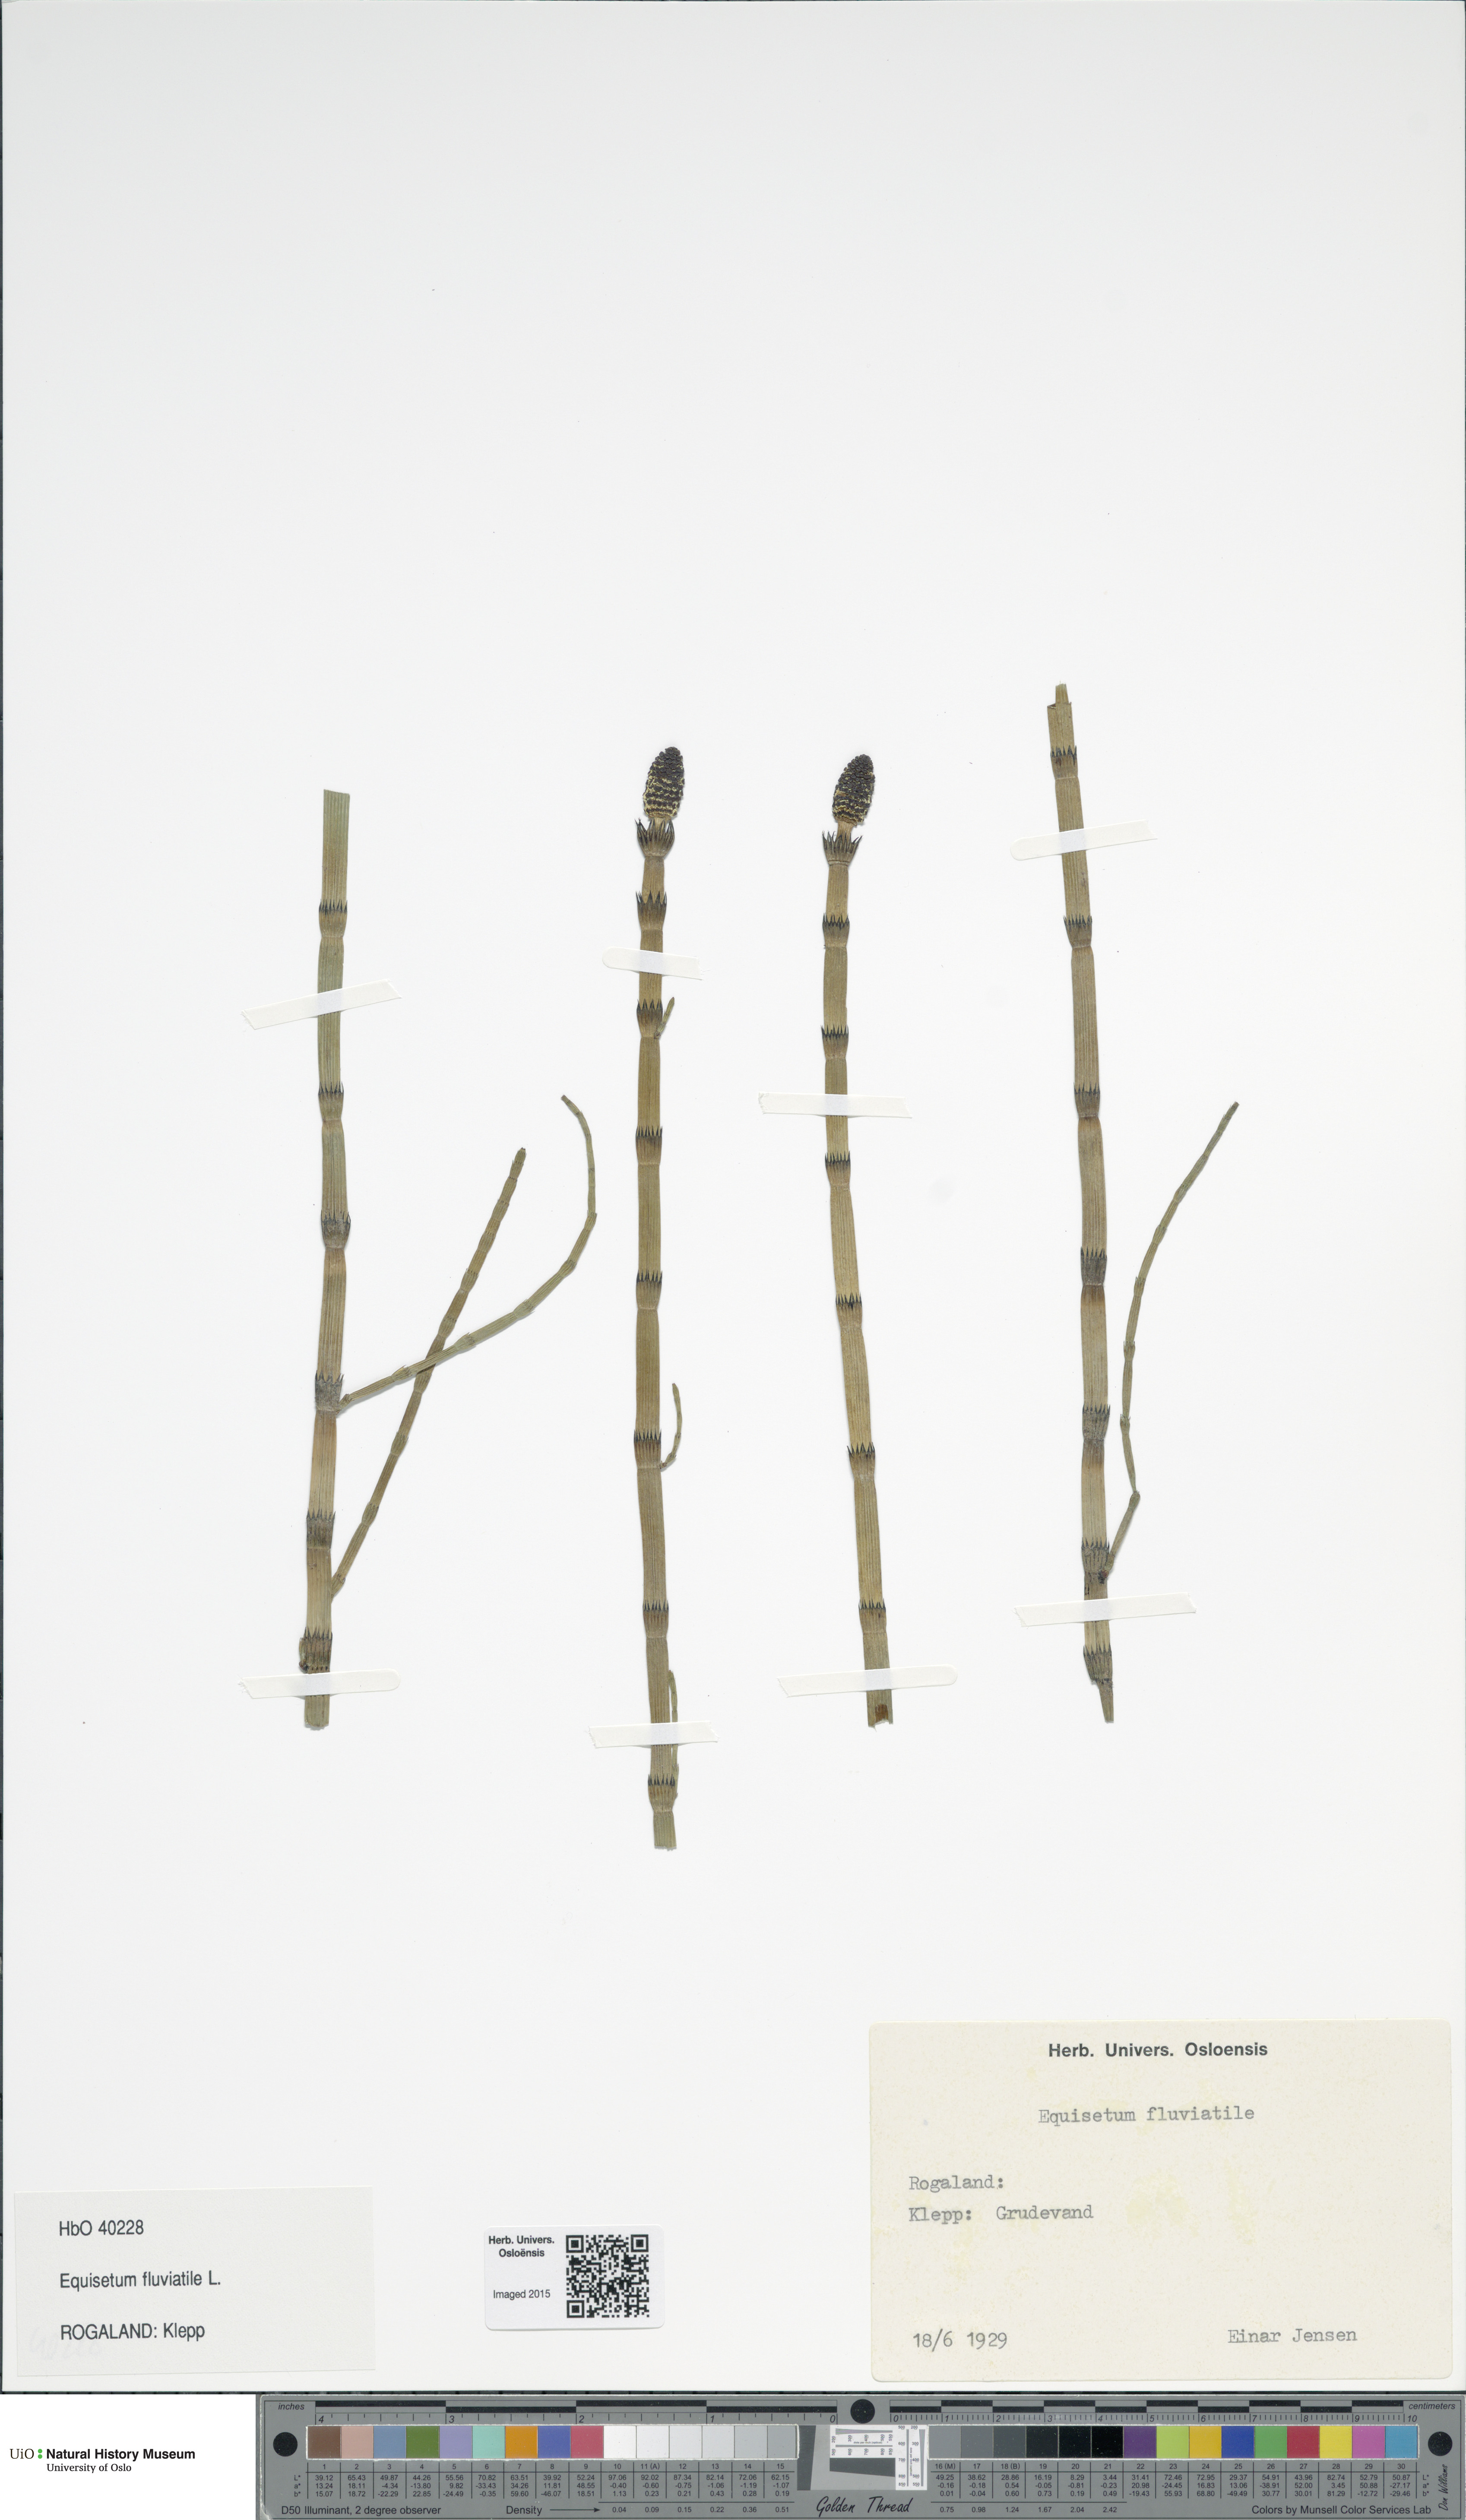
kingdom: Plantae
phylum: Tracheophyta
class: Polypodiopsida
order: Equisetales
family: Equisetaceae
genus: Equisetum
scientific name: Equisetum fluviatile
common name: Water horsetail
